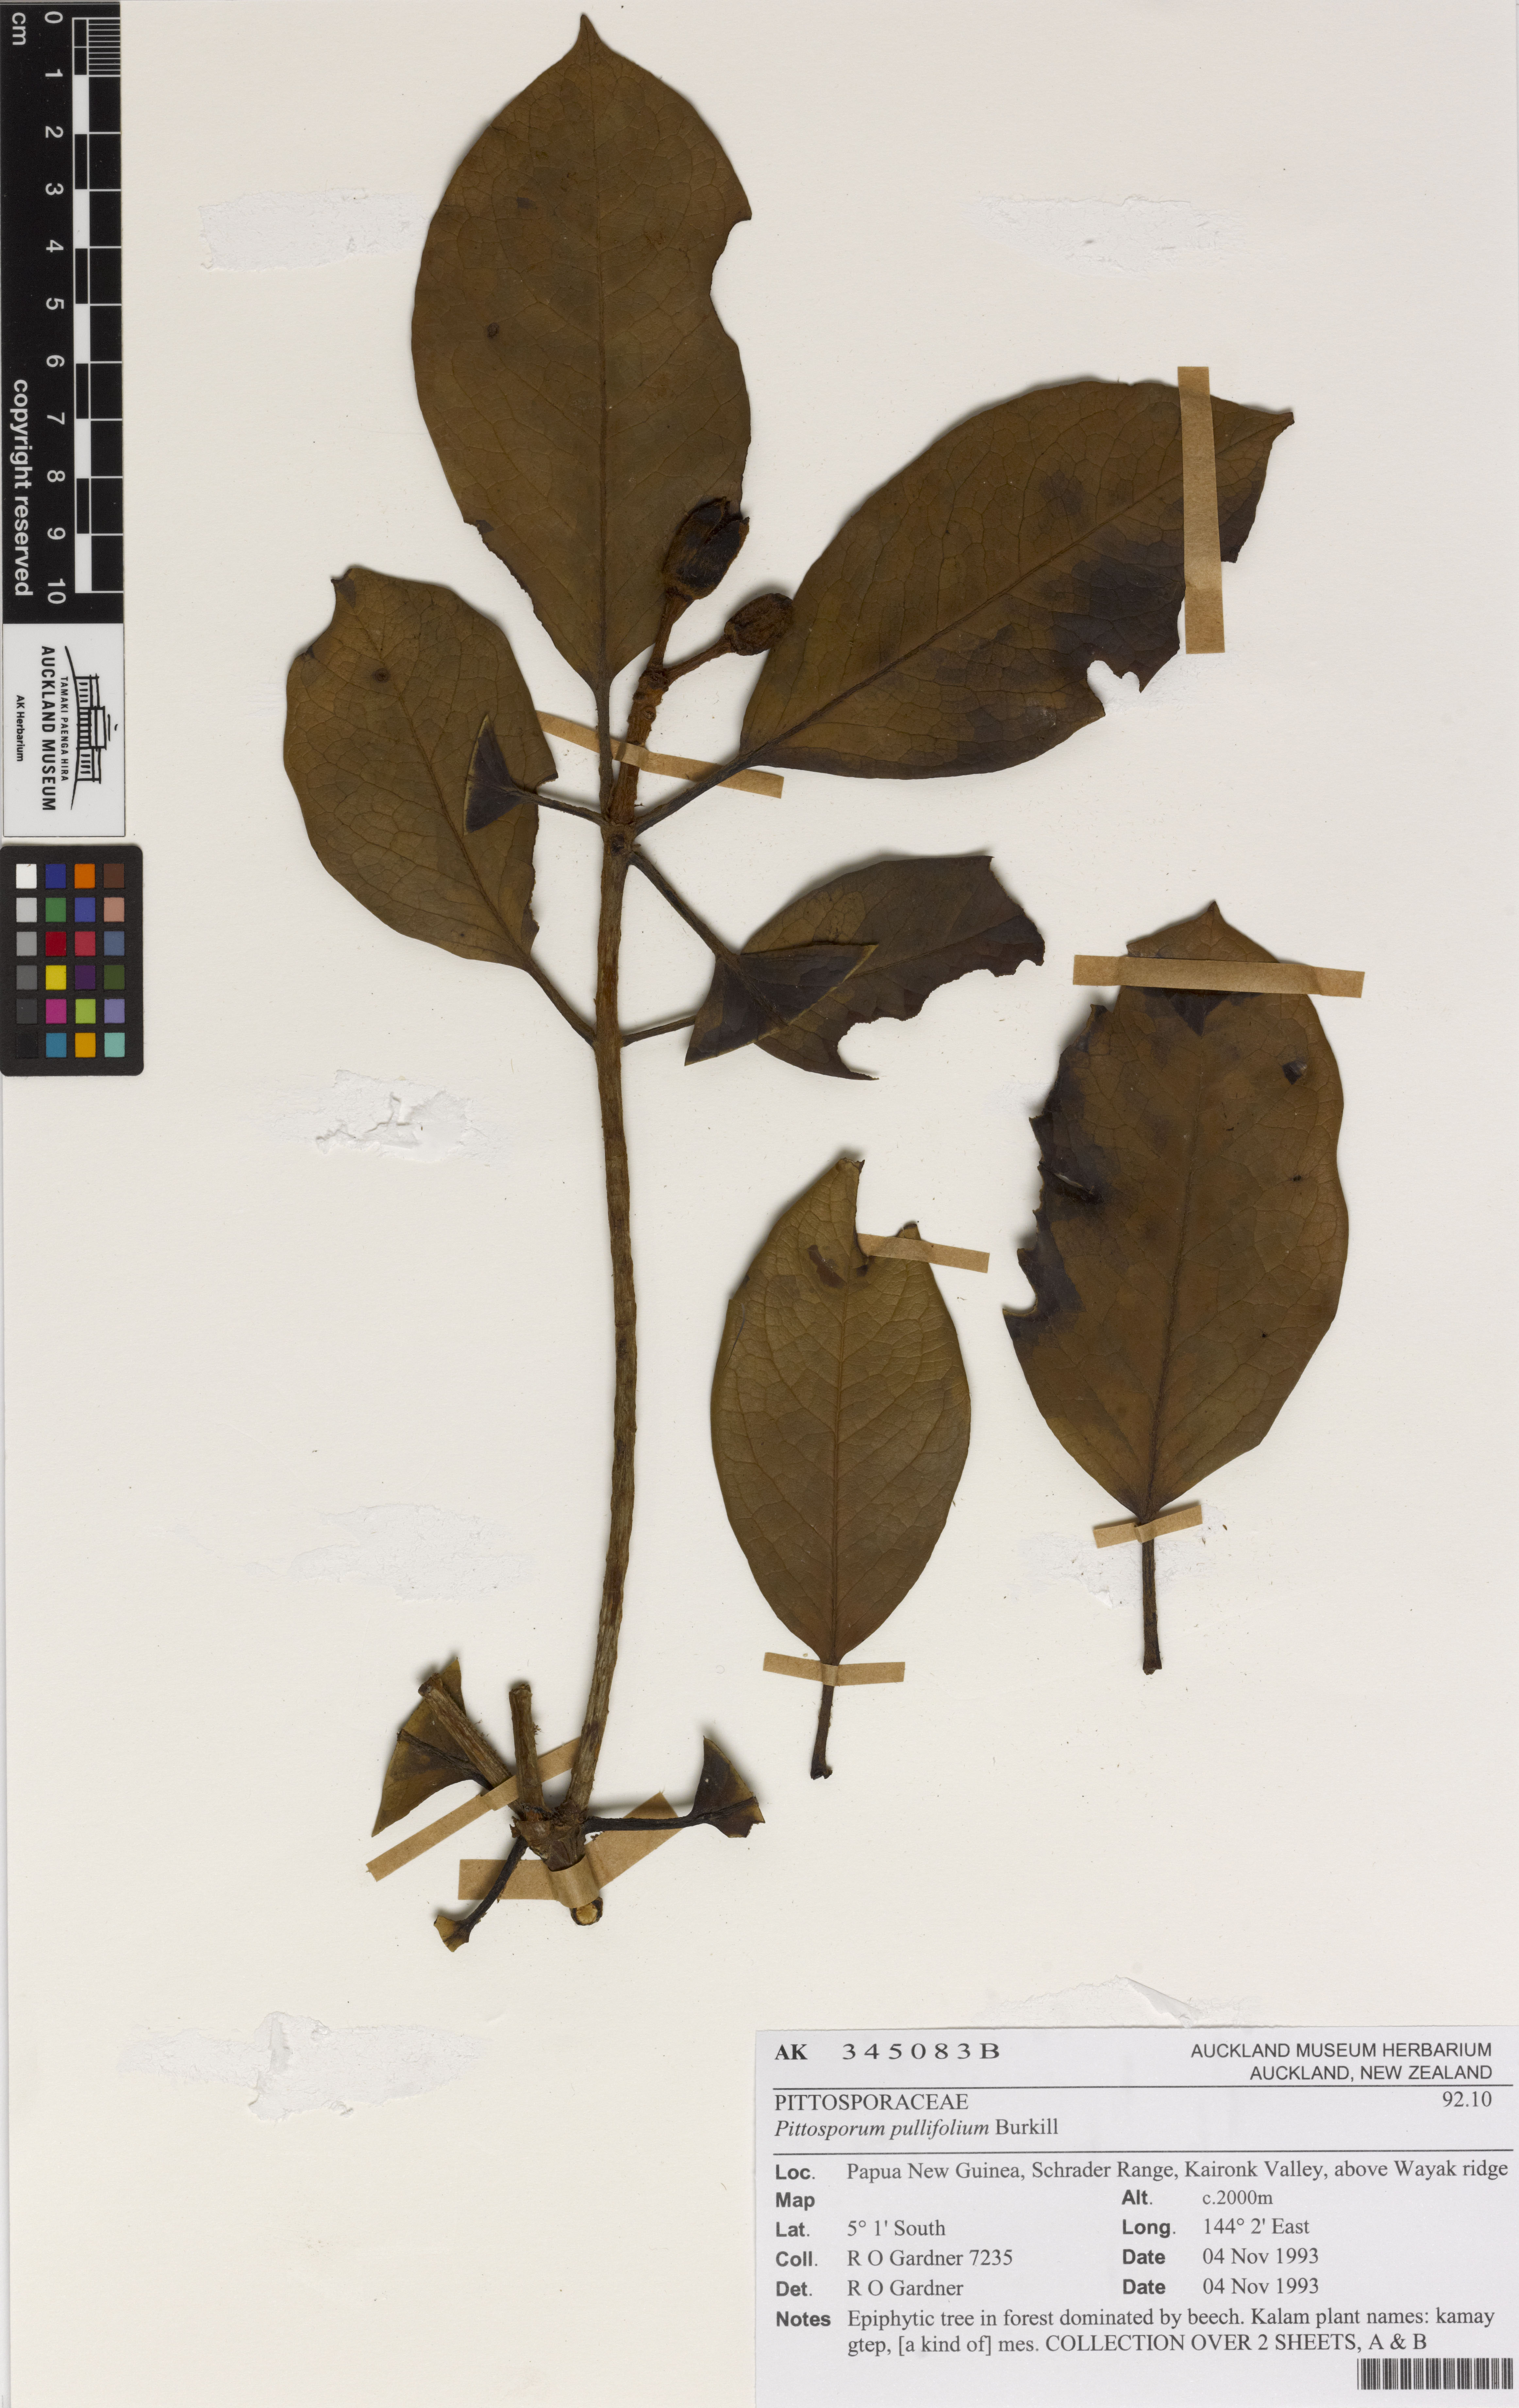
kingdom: Plantae
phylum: Tracheophyta
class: Magnoliopsida
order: Apiales
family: Pittosporaceae
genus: Pittosporum
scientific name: Pittosporum pullifolium
